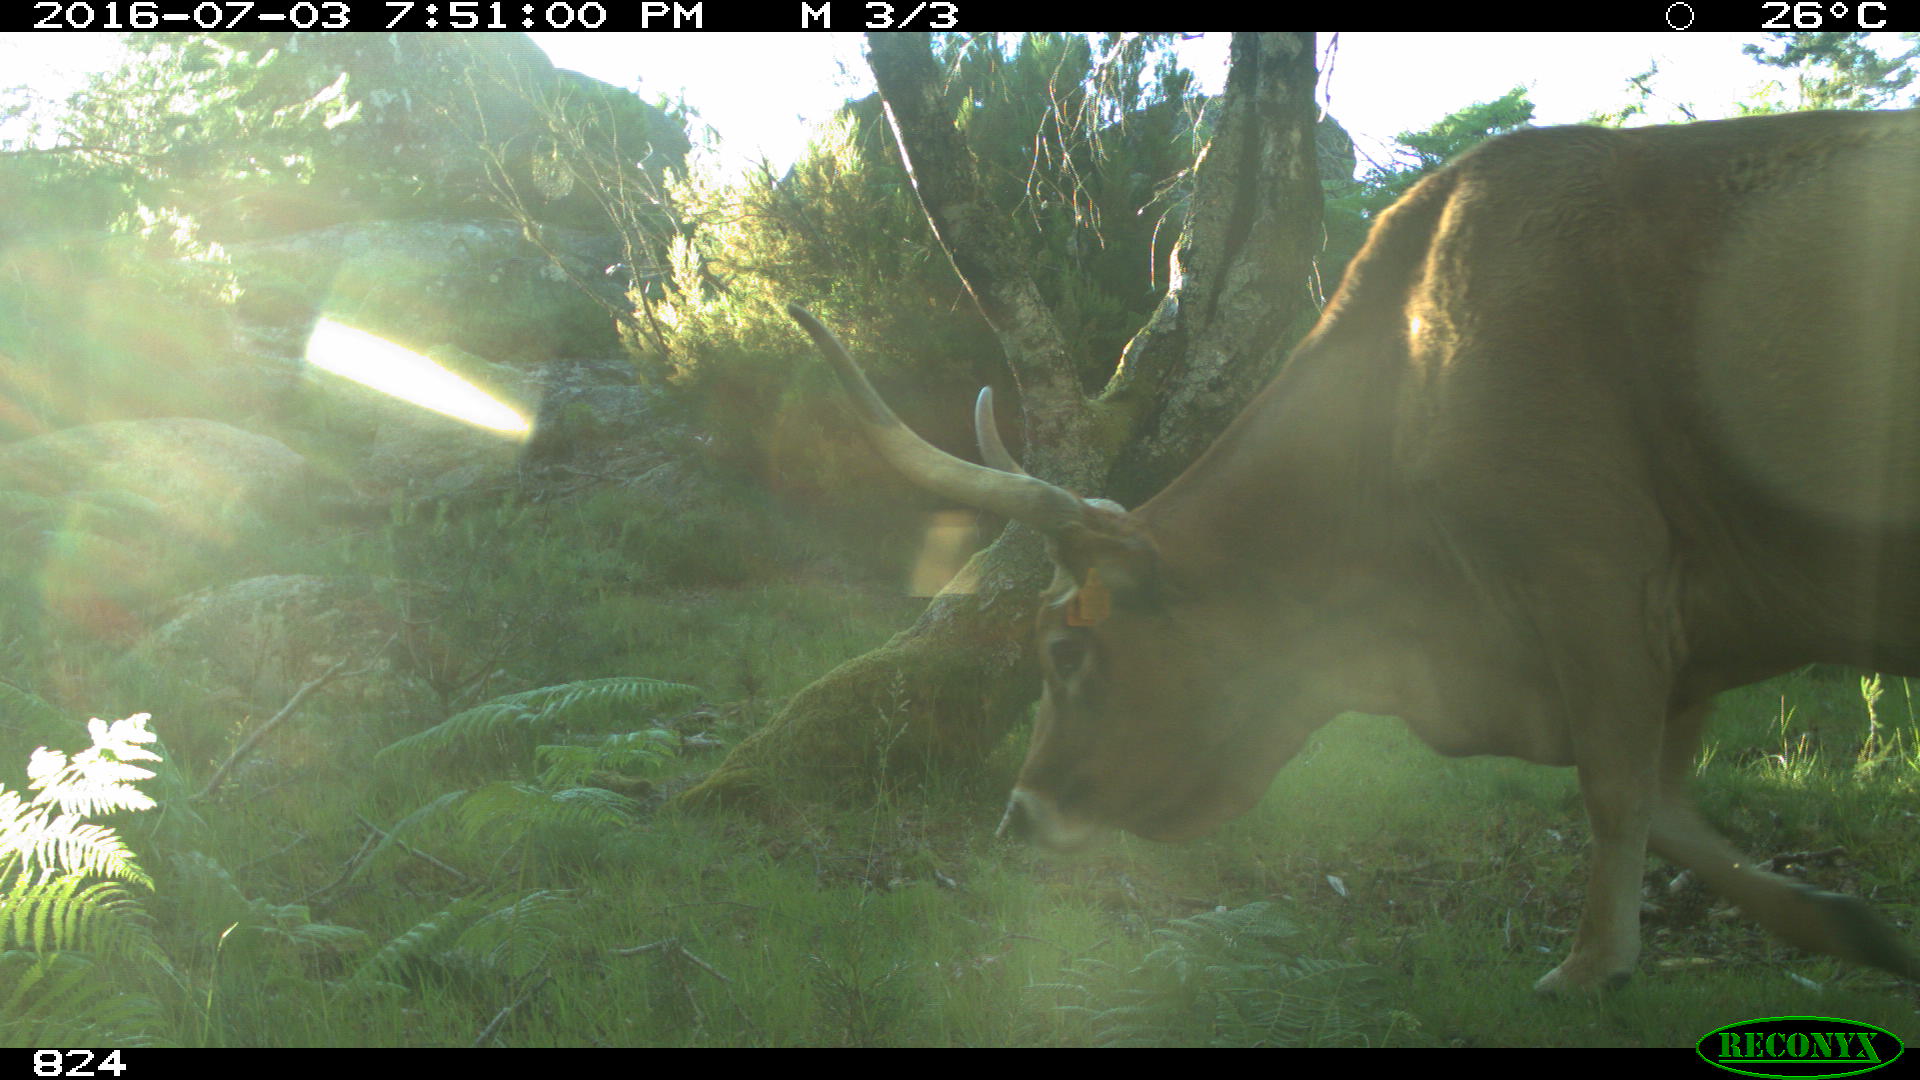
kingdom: Animalia
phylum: Chordata
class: Mammalia
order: Artiodactyla
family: Bovidae
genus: Bos
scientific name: Bos taurus
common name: Domesticated cattle
